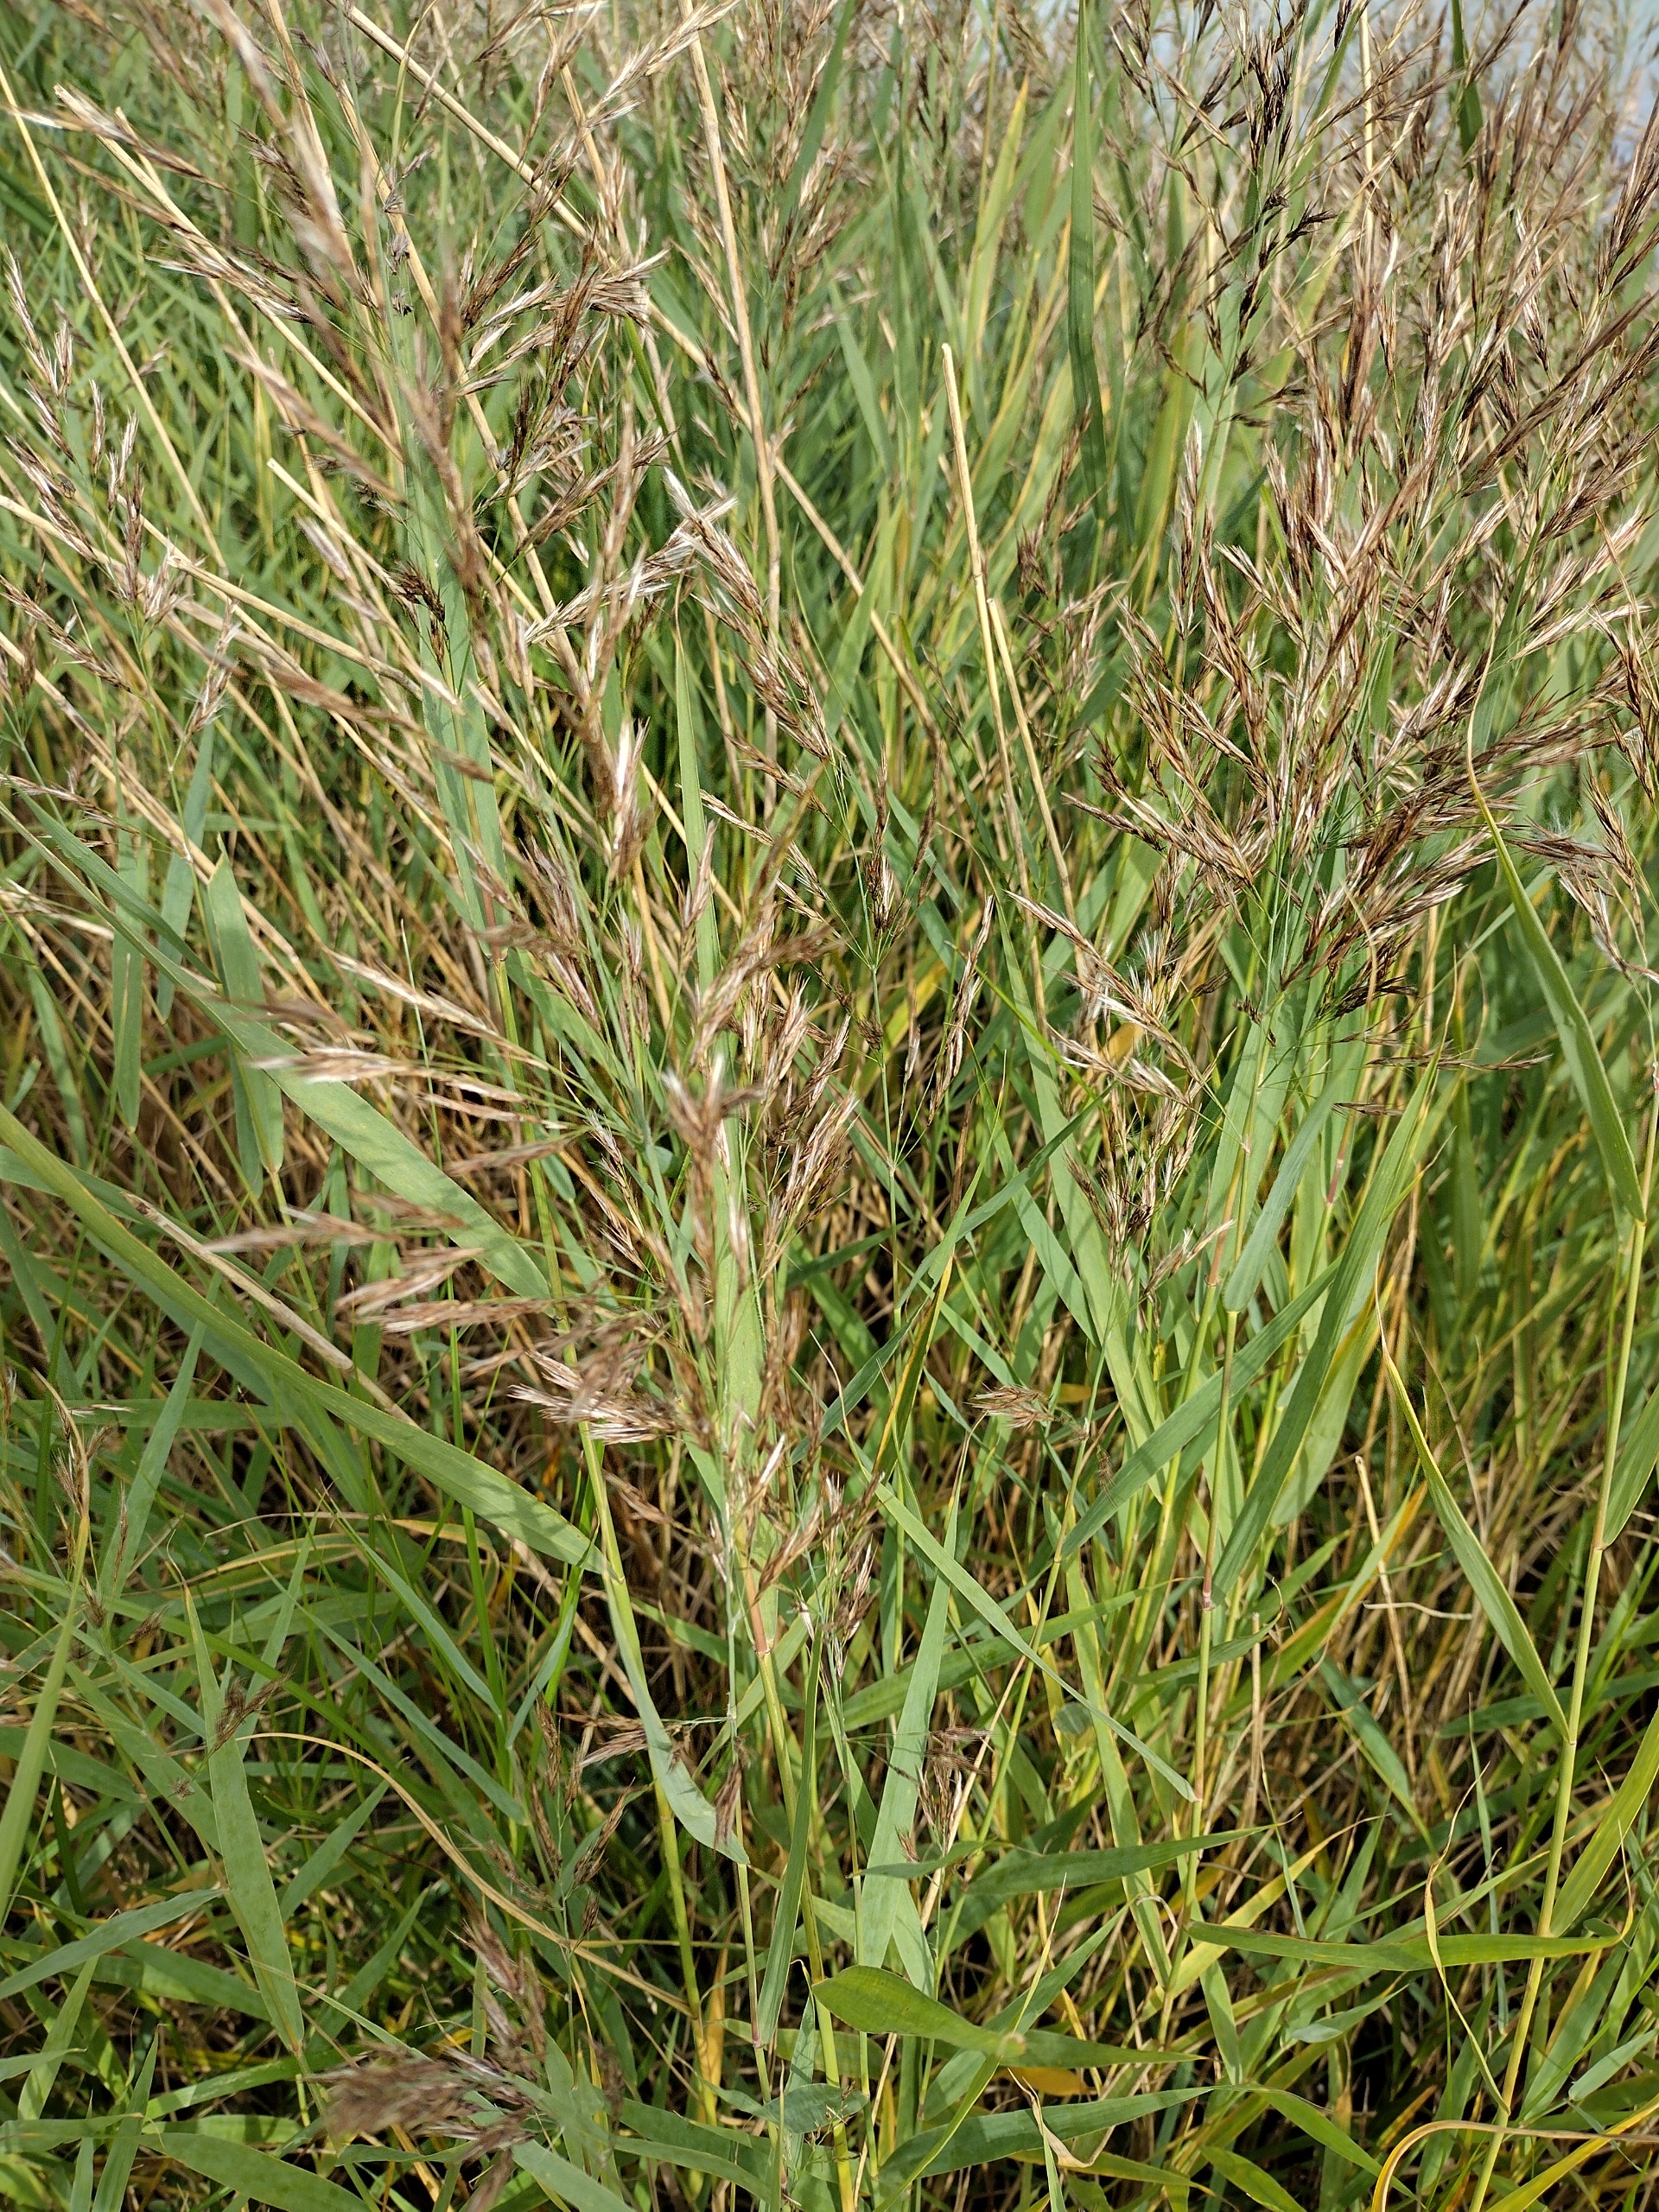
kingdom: Plantae
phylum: Tracheophyta
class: Liliopsida
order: Poales
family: Poaceae
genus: Phragmites
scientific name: Phragmites australis
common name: Tagrør
